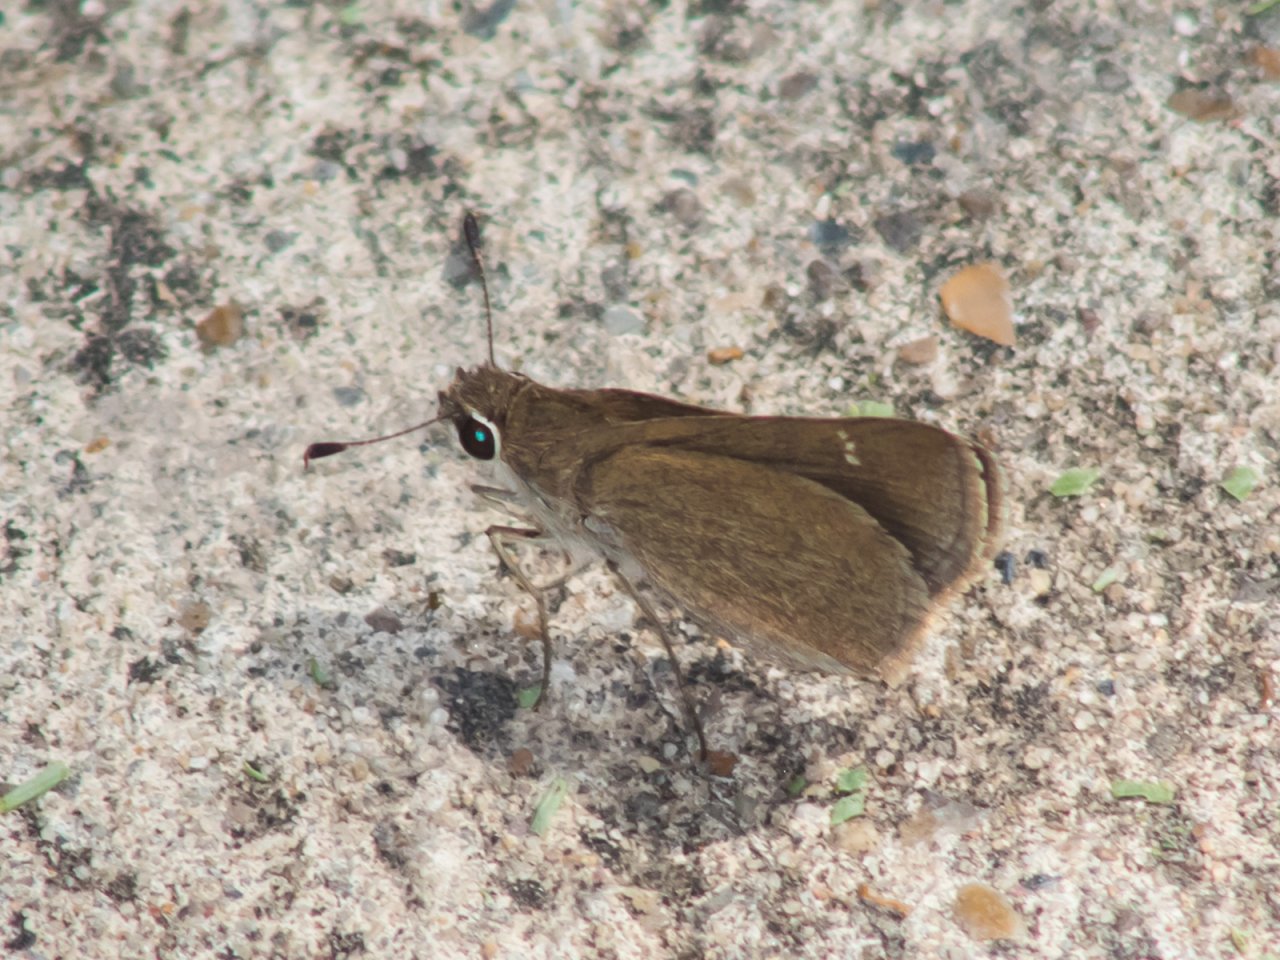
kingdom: Animalia
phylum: Arthropoda
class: Insecta
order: Lepidoptera
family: Hesperiidae
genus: Lerodea
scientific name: Lerodea eufala
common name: Eufala Skipper
